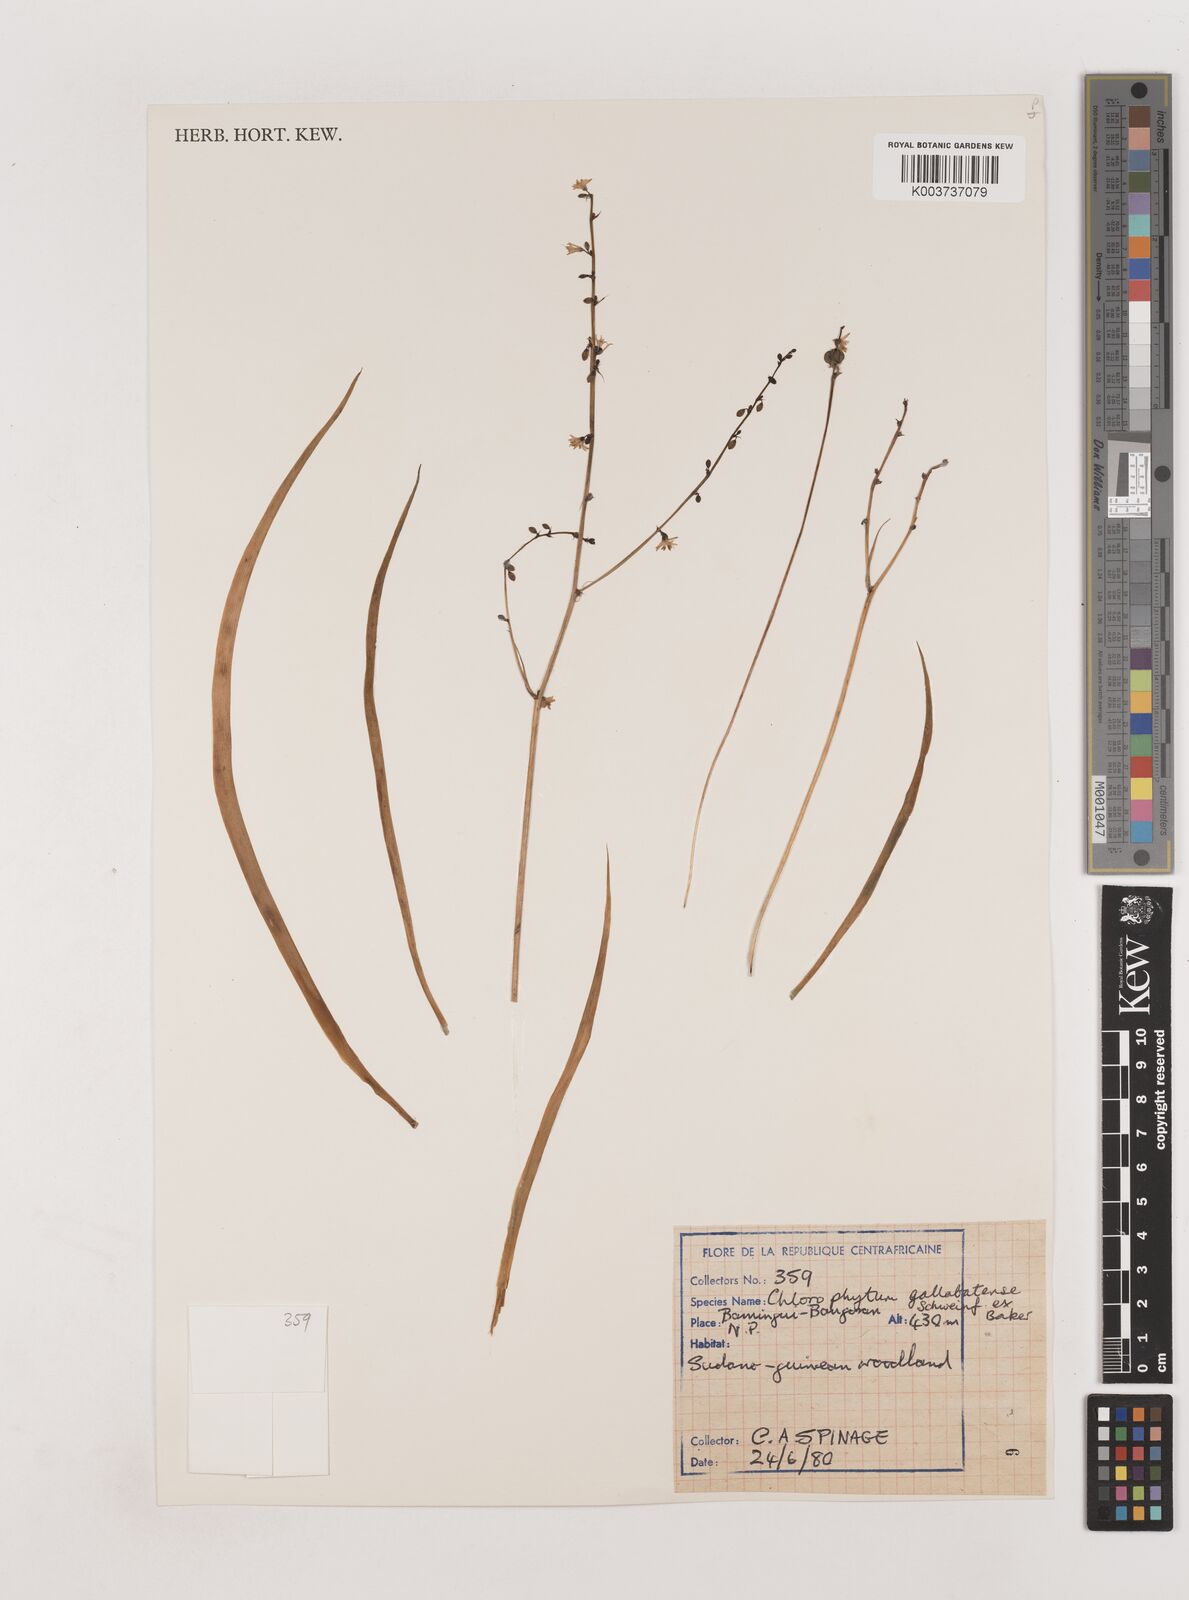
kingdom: Plantae
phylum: Tracheophyta
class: Liliopsida
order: Asparagales
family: Asparagaceae
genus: Chlorophytum
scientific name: Chlorophytum gallabatense
